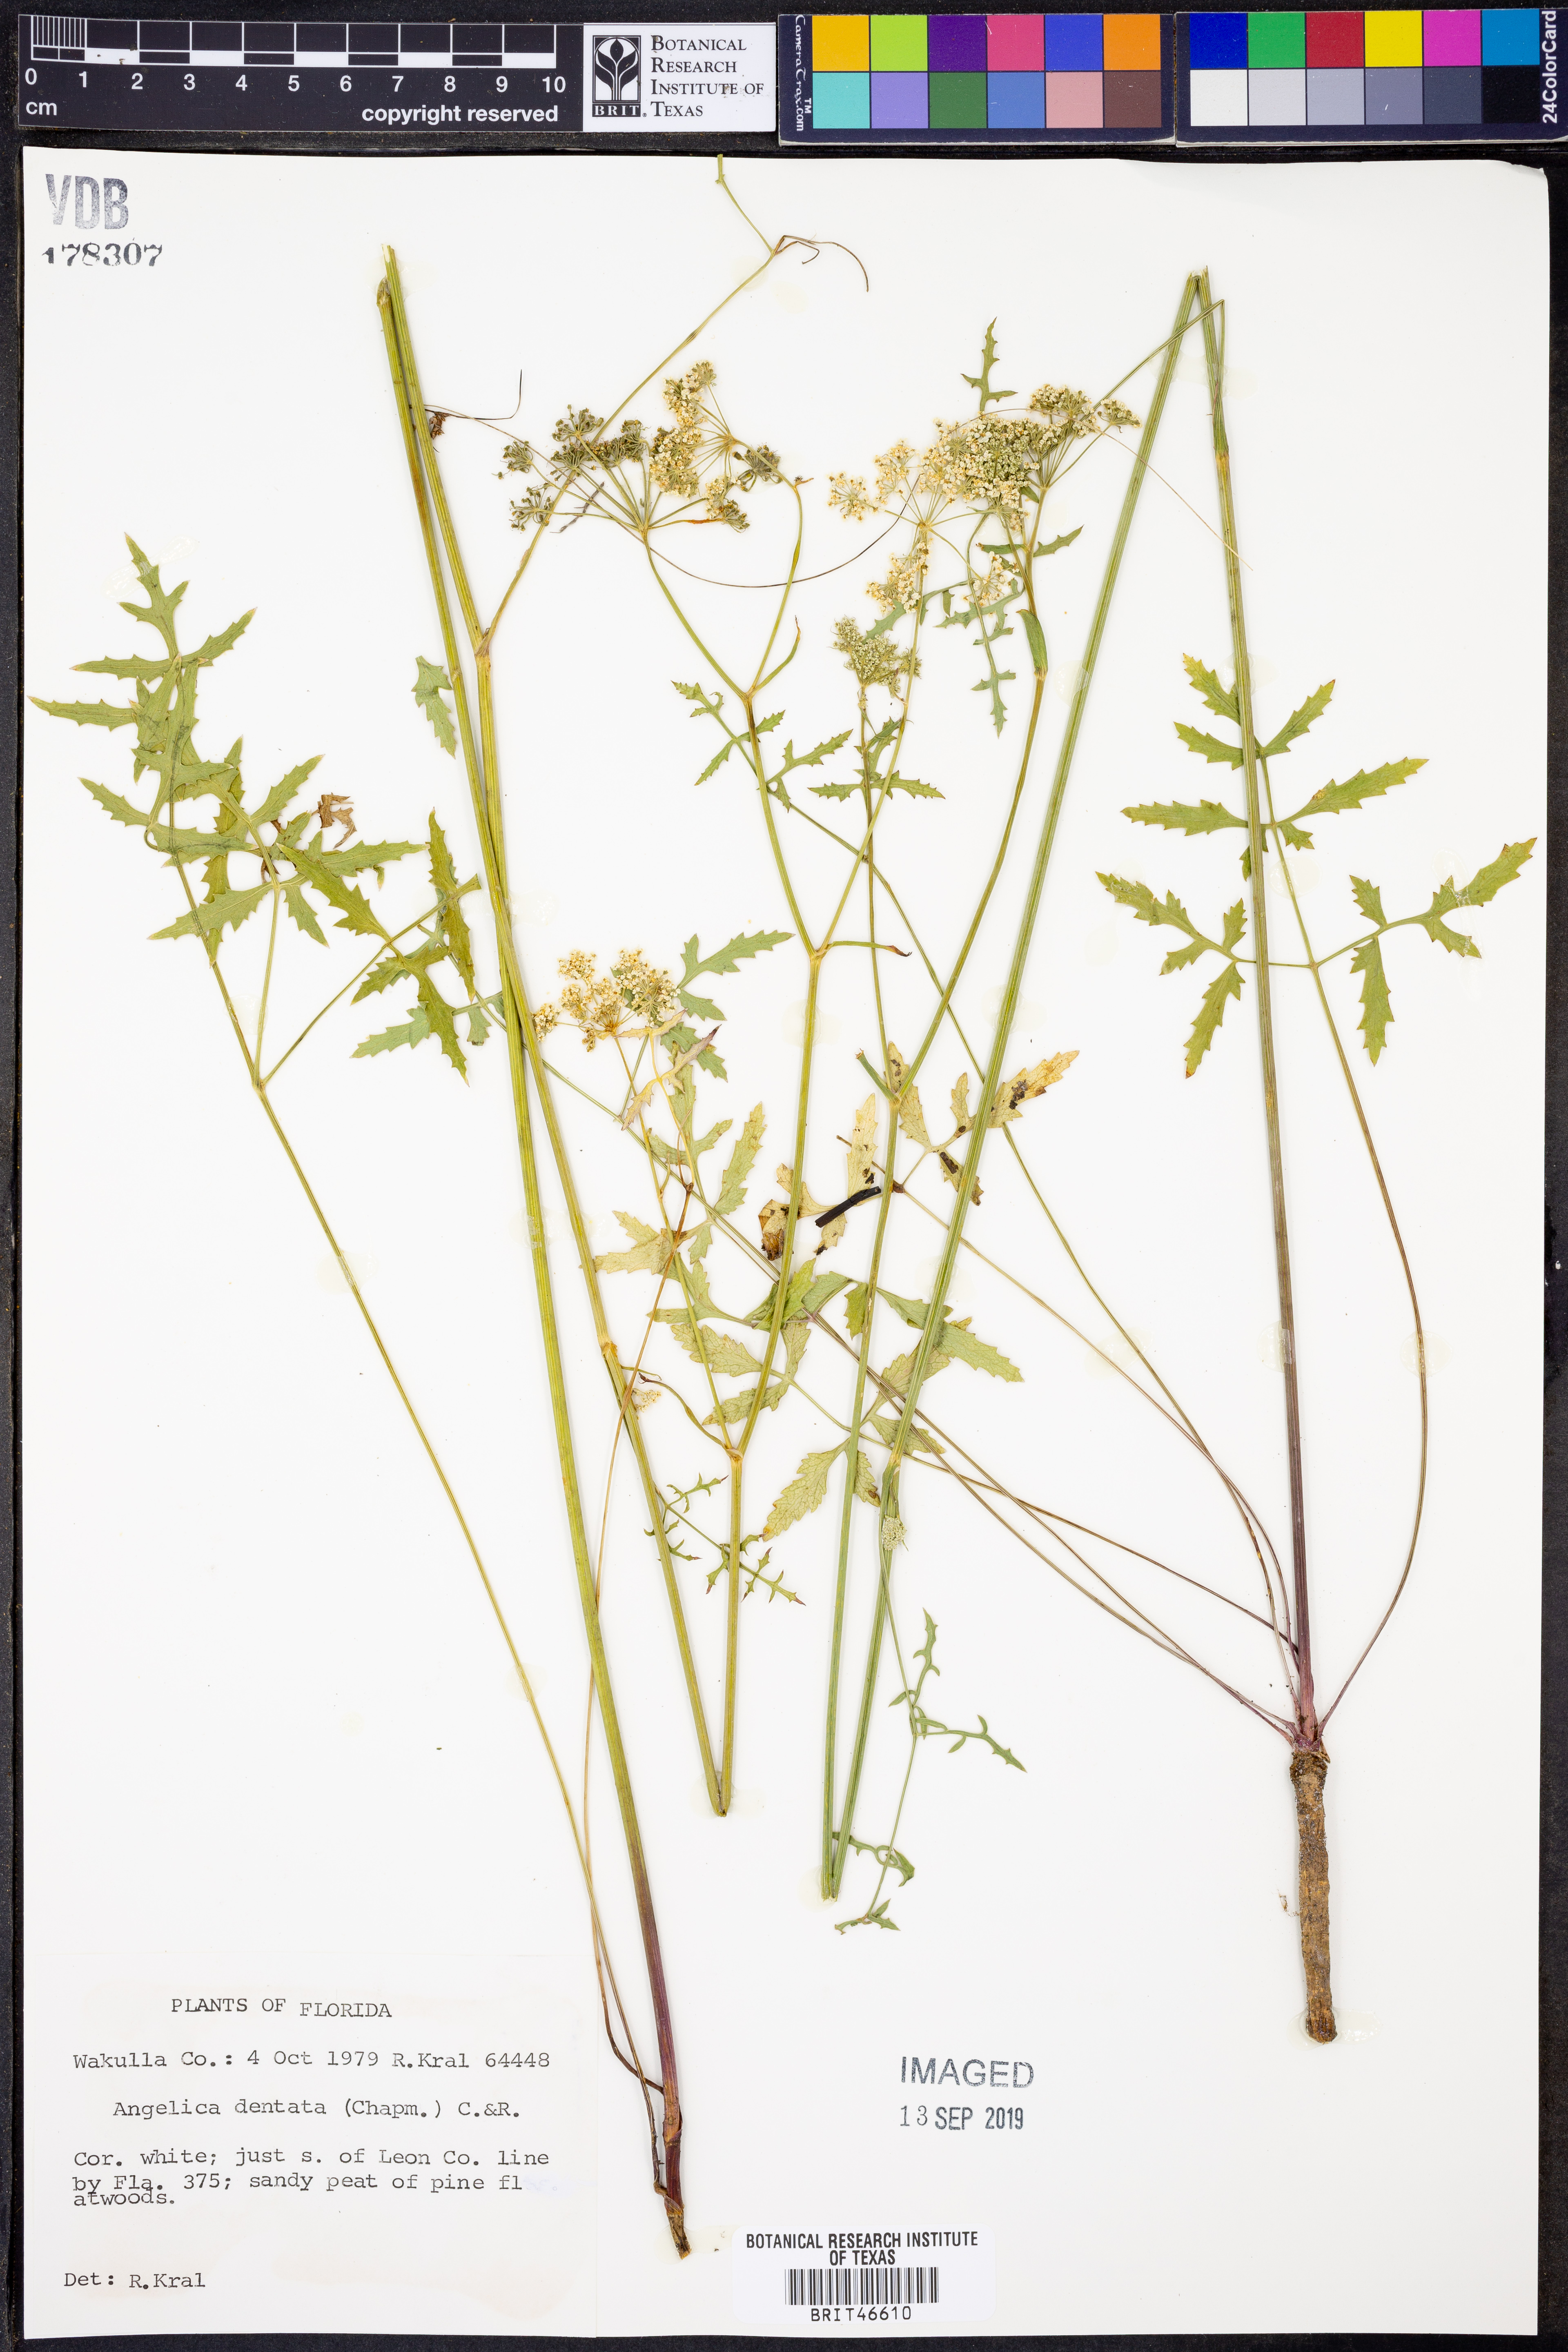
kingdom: Plantae
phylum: Tracheophyta
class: Magnoliopsida
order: Apiales
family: Apiaceae
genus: Angelica
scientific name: Angelica venenosa
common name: Hairy angelica
